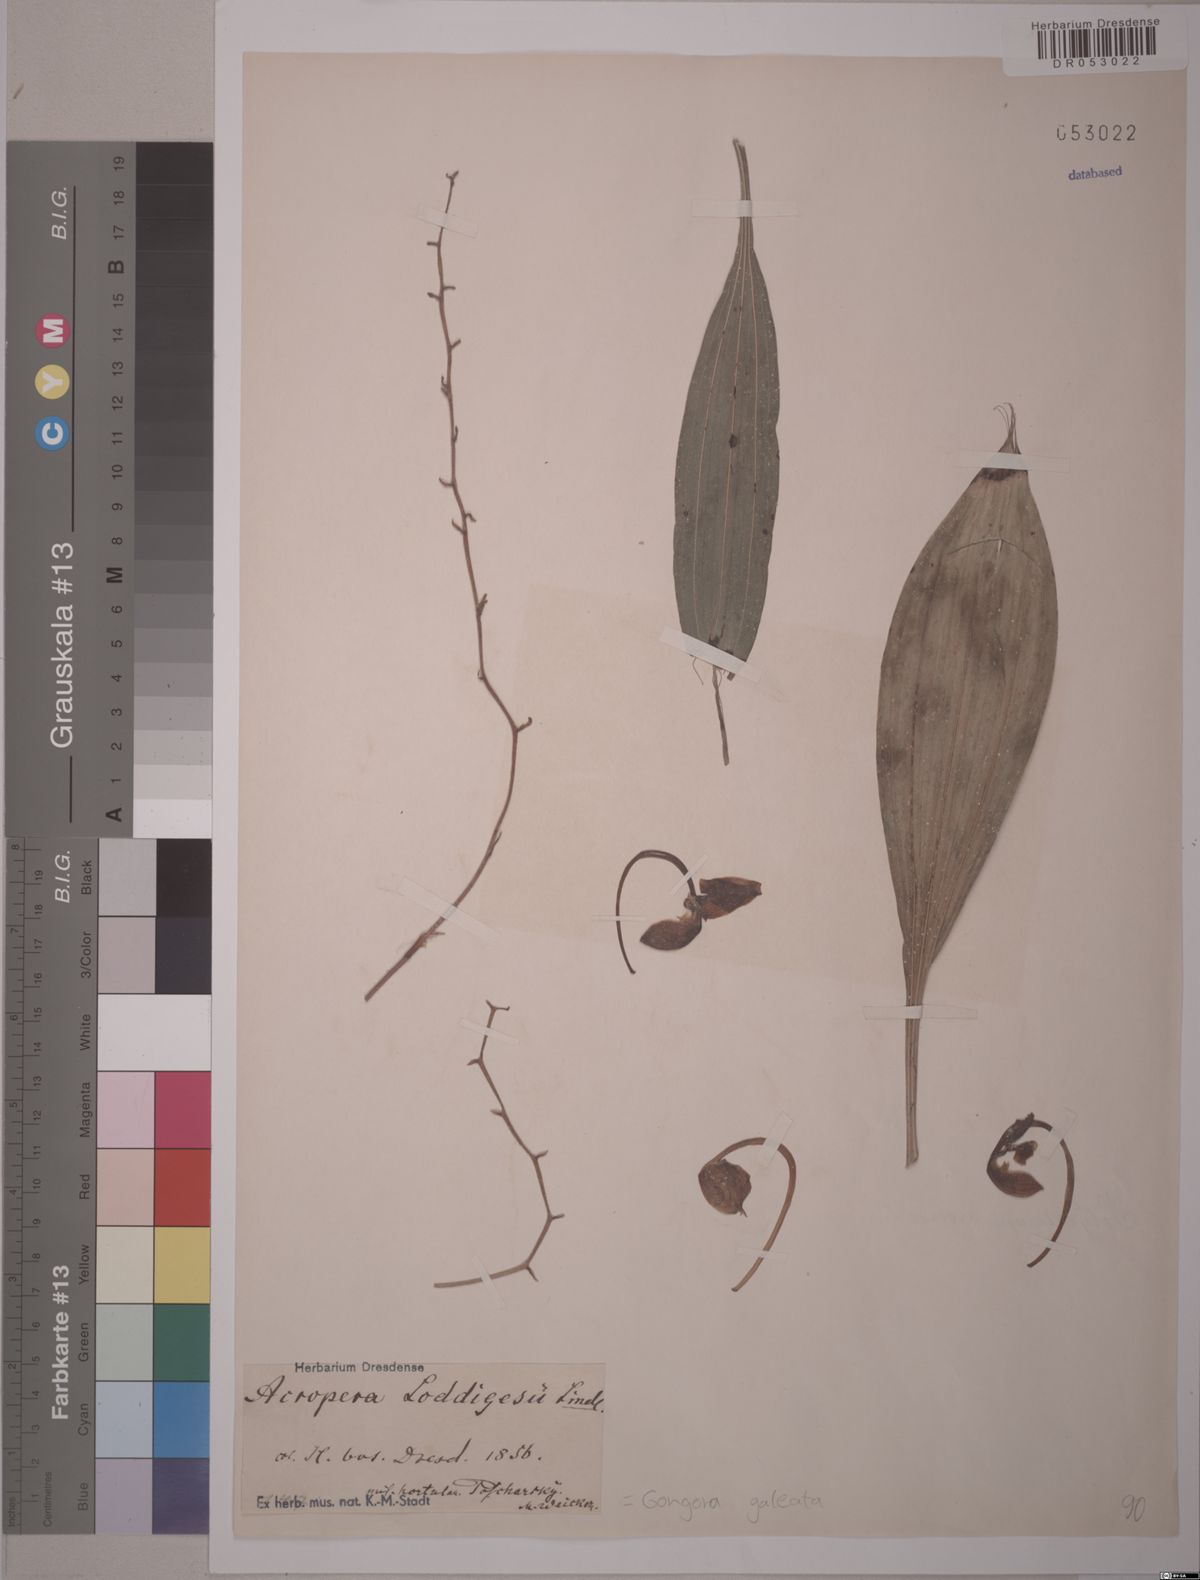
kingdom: Plantae
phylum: Tracheophyta
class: Liliopsida
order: Asparagales
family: Orchidaceae
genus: Gongora
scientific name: Gongora galeata
